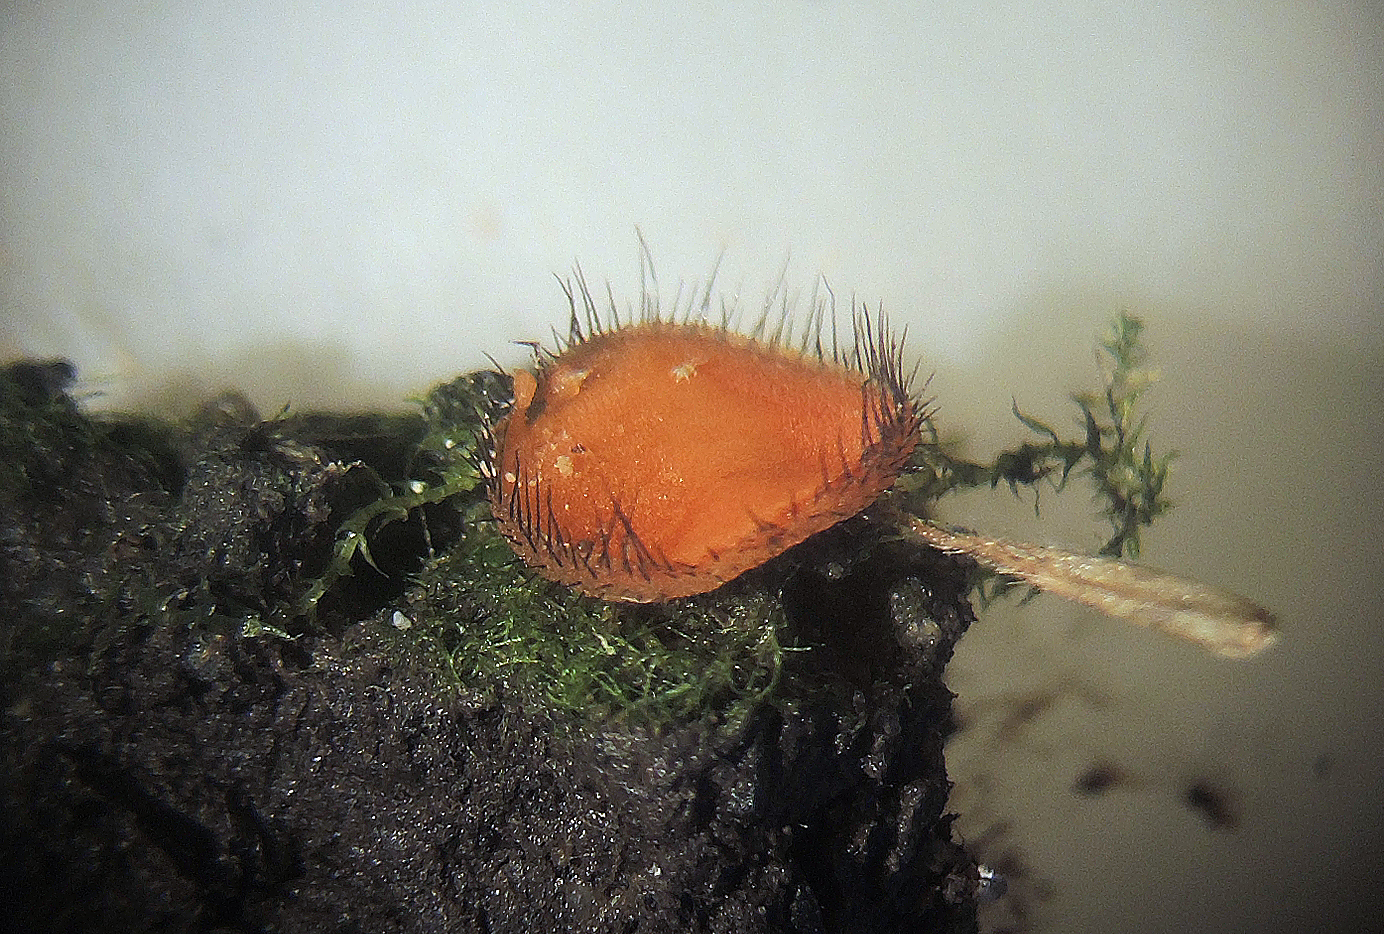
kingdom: Fungi
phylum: Ascomycota
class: Pezizomycetes
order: Pezizales
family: Pyronemataceae
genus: Scutellinia
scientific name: Scutellinia scutellata
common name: frynset skjoldbæger
